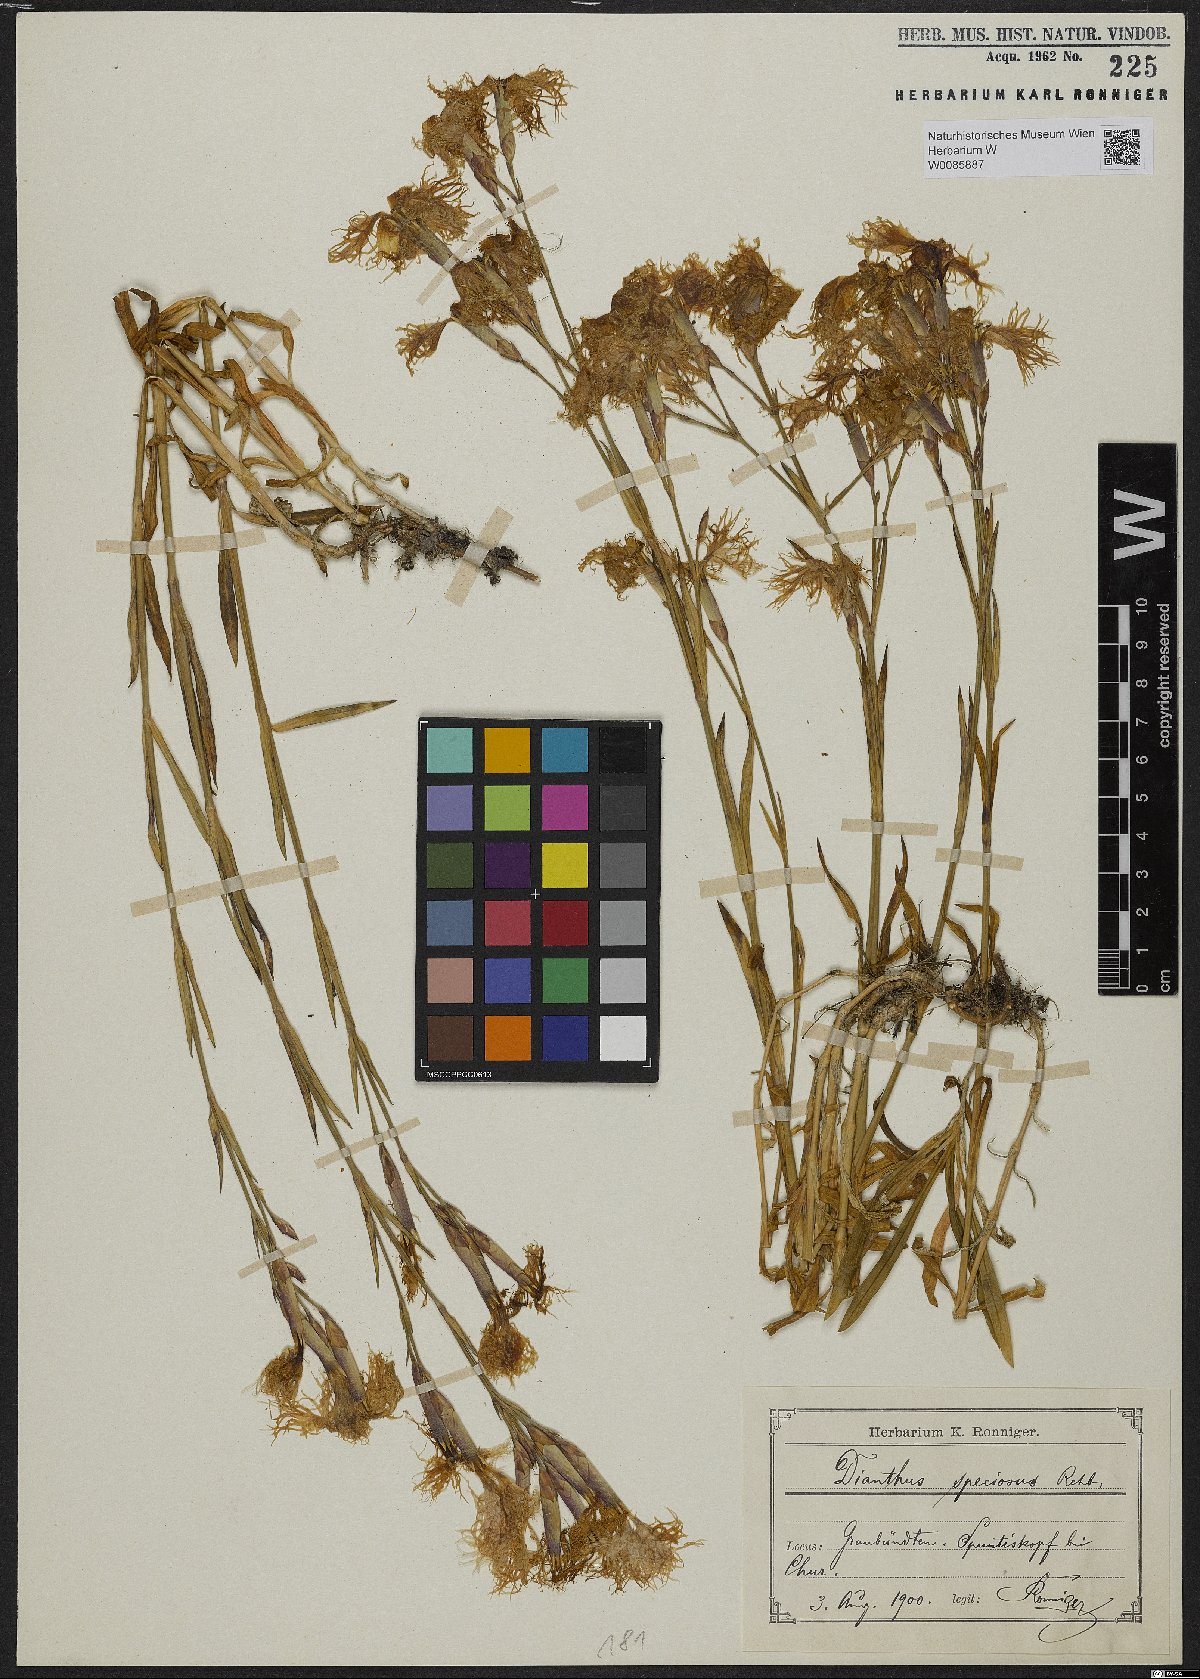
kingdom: Plantae
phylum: Tracheophyta
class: Magnoliopsida
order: Caryophyllales
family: Caryophyllaceae
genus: Dianthus
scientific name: Dianthus superbus
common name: Fringed pink
